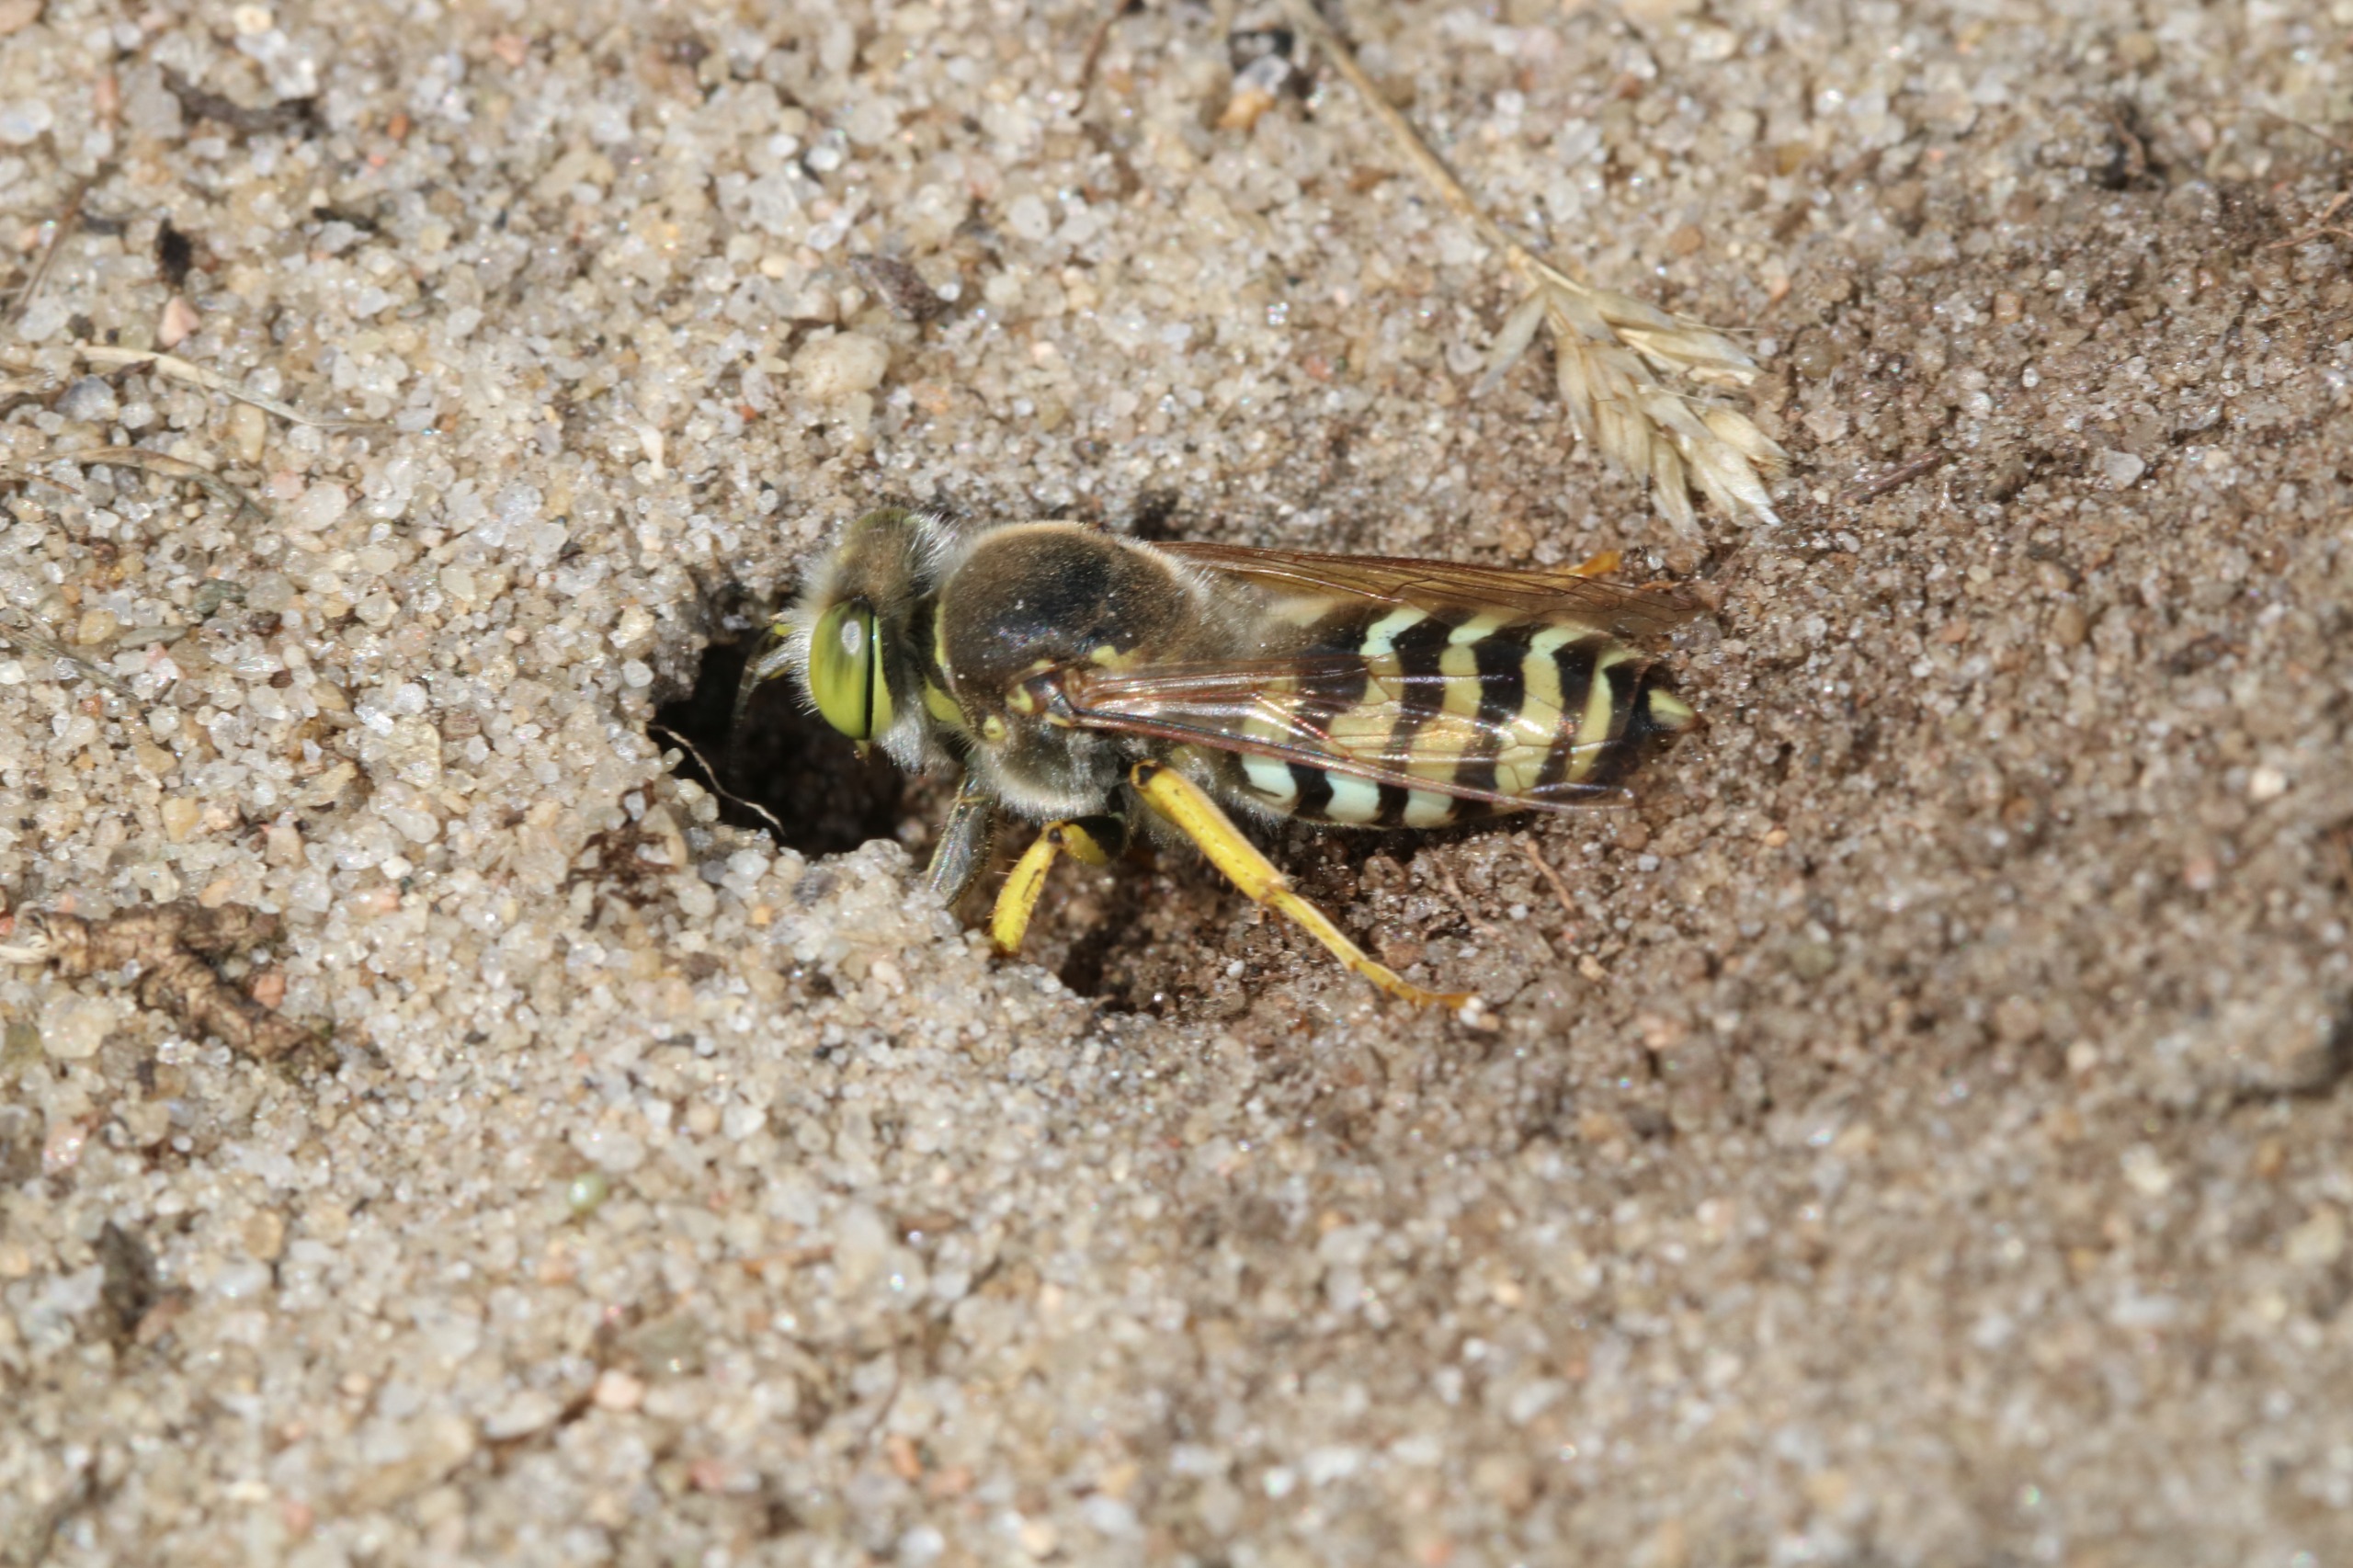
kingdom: Animalia
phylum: Arthropoda
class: Insecta
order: Hymenoptera
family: Crabronidae
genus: Bembix
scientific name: Bembix rostrata
